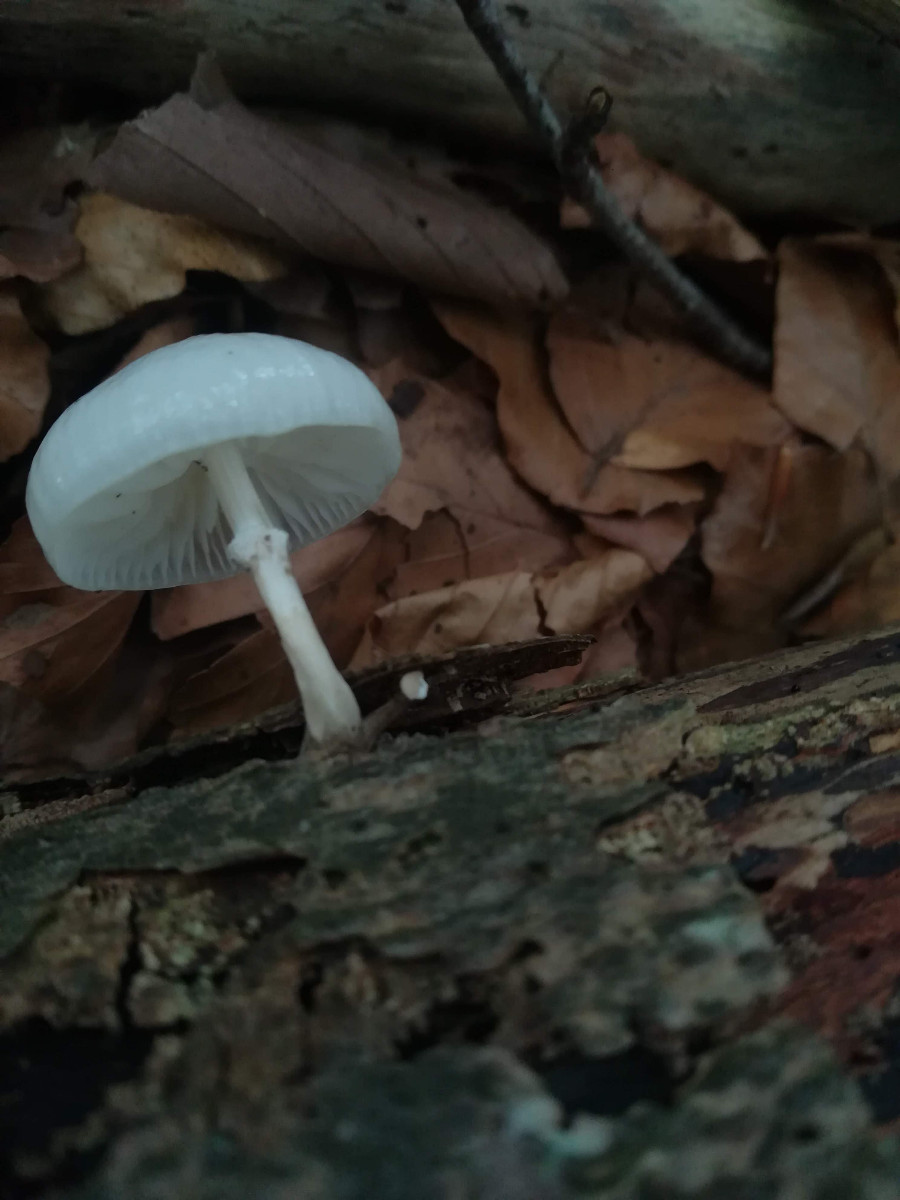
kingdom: Fungi
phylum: Basidiomycota
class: Agaricomycetes
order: Agaricales
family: Physalacriaceae
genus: Mucidula
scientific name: Mucidula mucida
